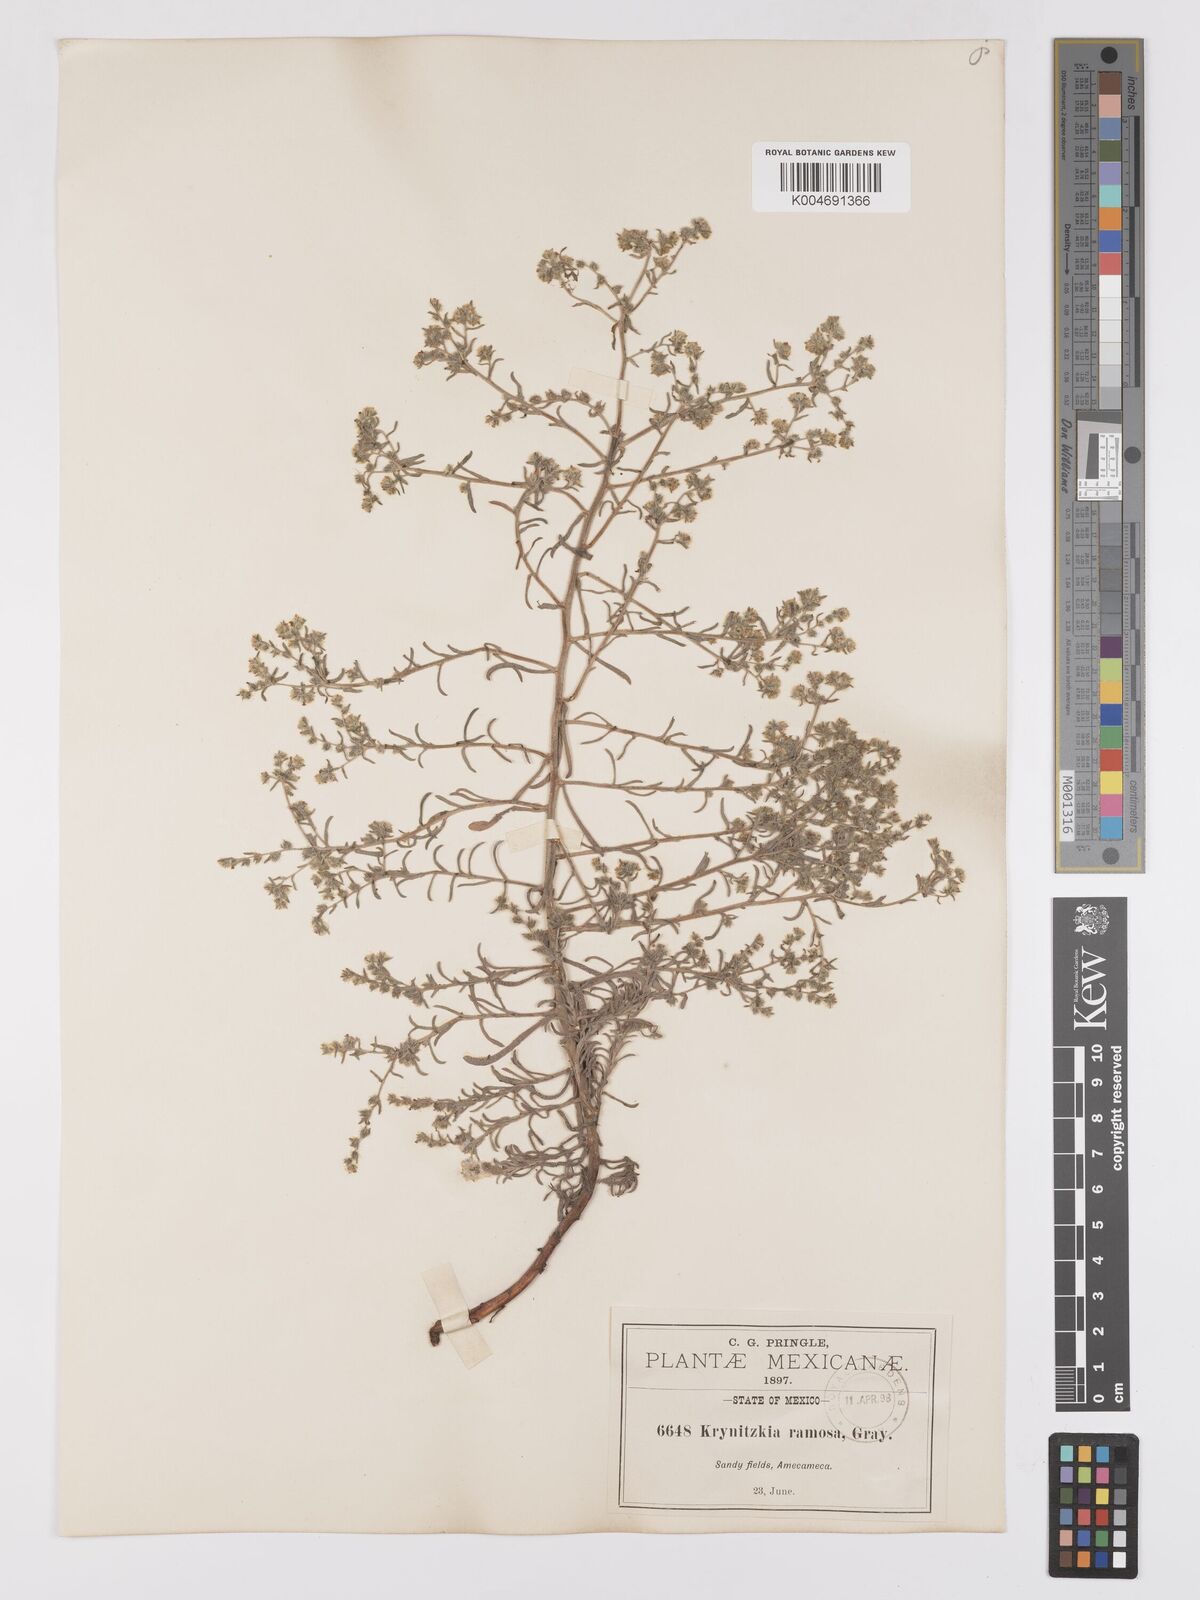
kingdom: Plantae
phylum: Tracheophyta
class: Magnoliopsida
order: Boraginales
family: Boraginaceae
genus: Johnstonella
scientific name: Johnstonella albida
